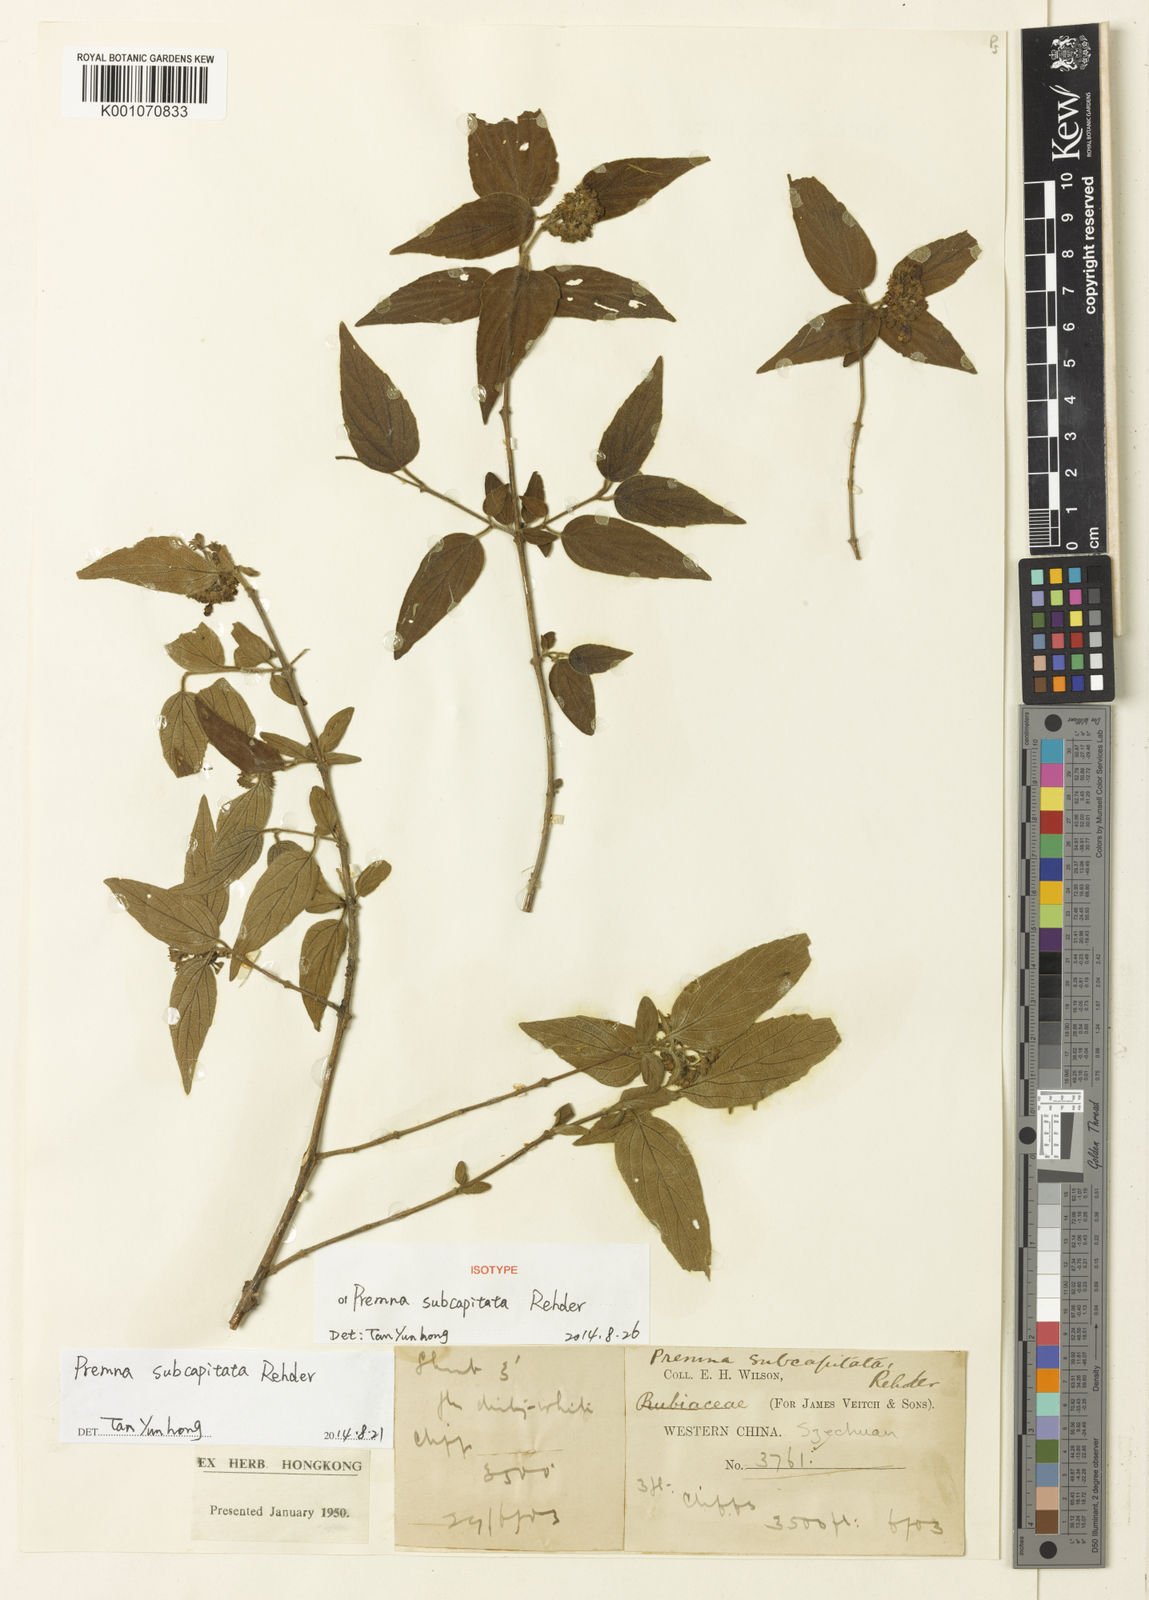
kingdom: Plantae
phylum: Tracheophyta
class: Magnoliopsida
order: Lamiales
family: Lamiaceae
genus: Premna
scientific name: Premna acutata
